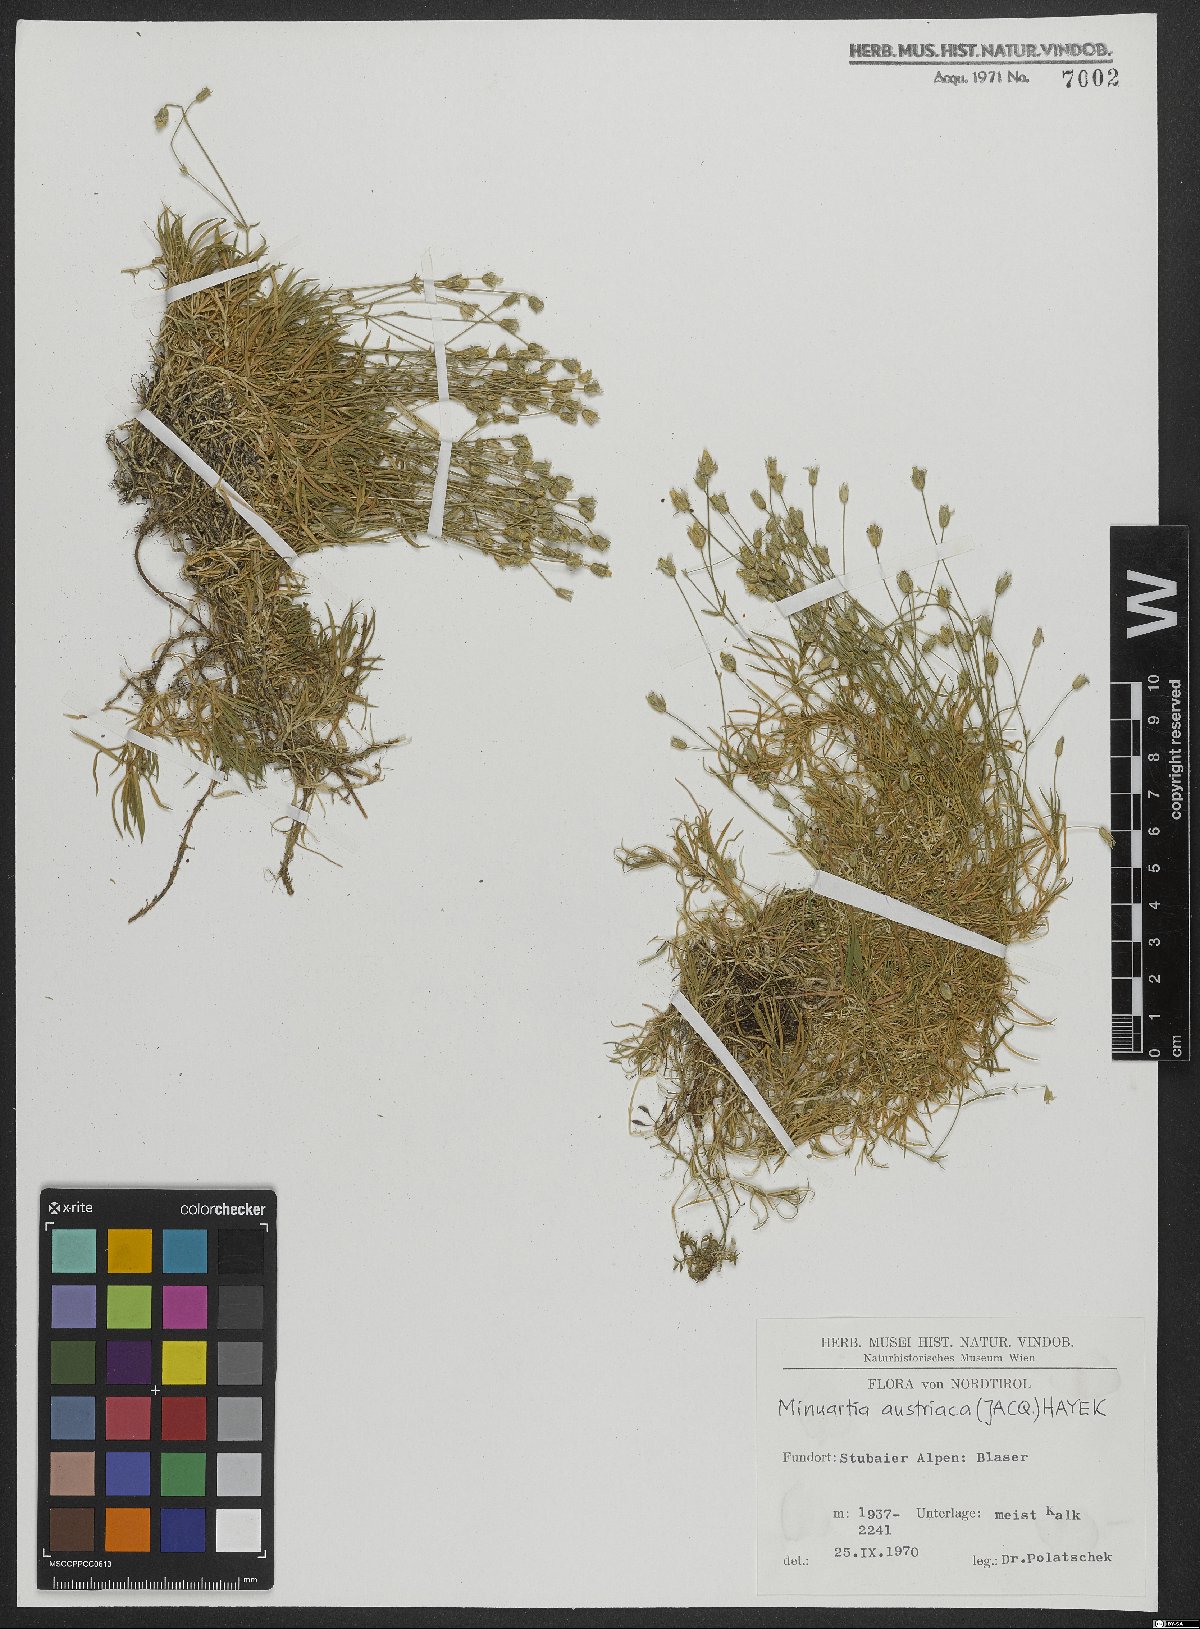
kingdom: Plantae
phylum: Tracheophyta
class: Magnoliopsida
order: Caryophyllales
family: Caryophyllaceae
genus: Sabulina
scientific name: Sabulina austriaca
